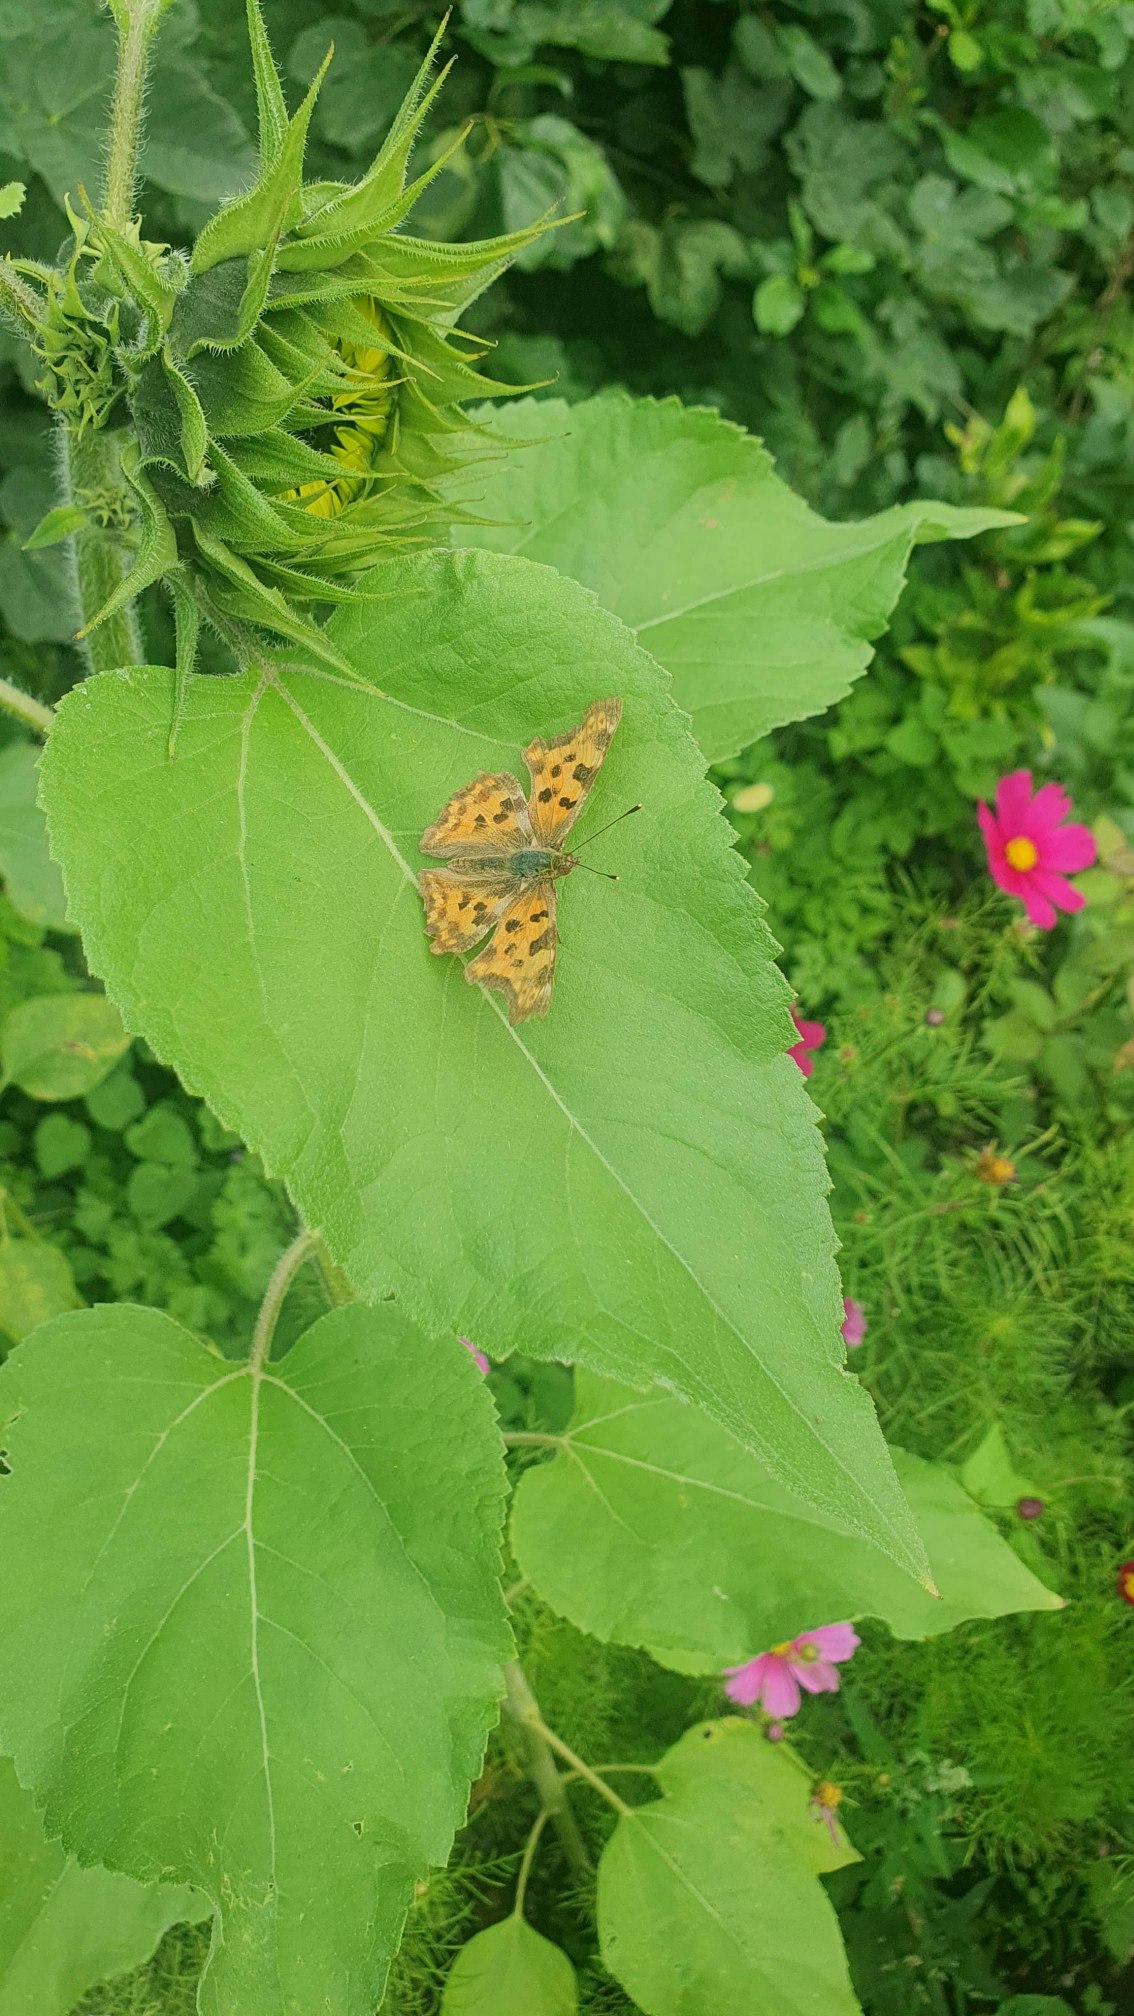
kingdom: Animalia
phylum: Arthropoda
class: Insecta
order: Lepidoptera
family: Nymphalidae
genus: Polygonia
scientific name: Polygonia c-album
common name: Det hvide C
